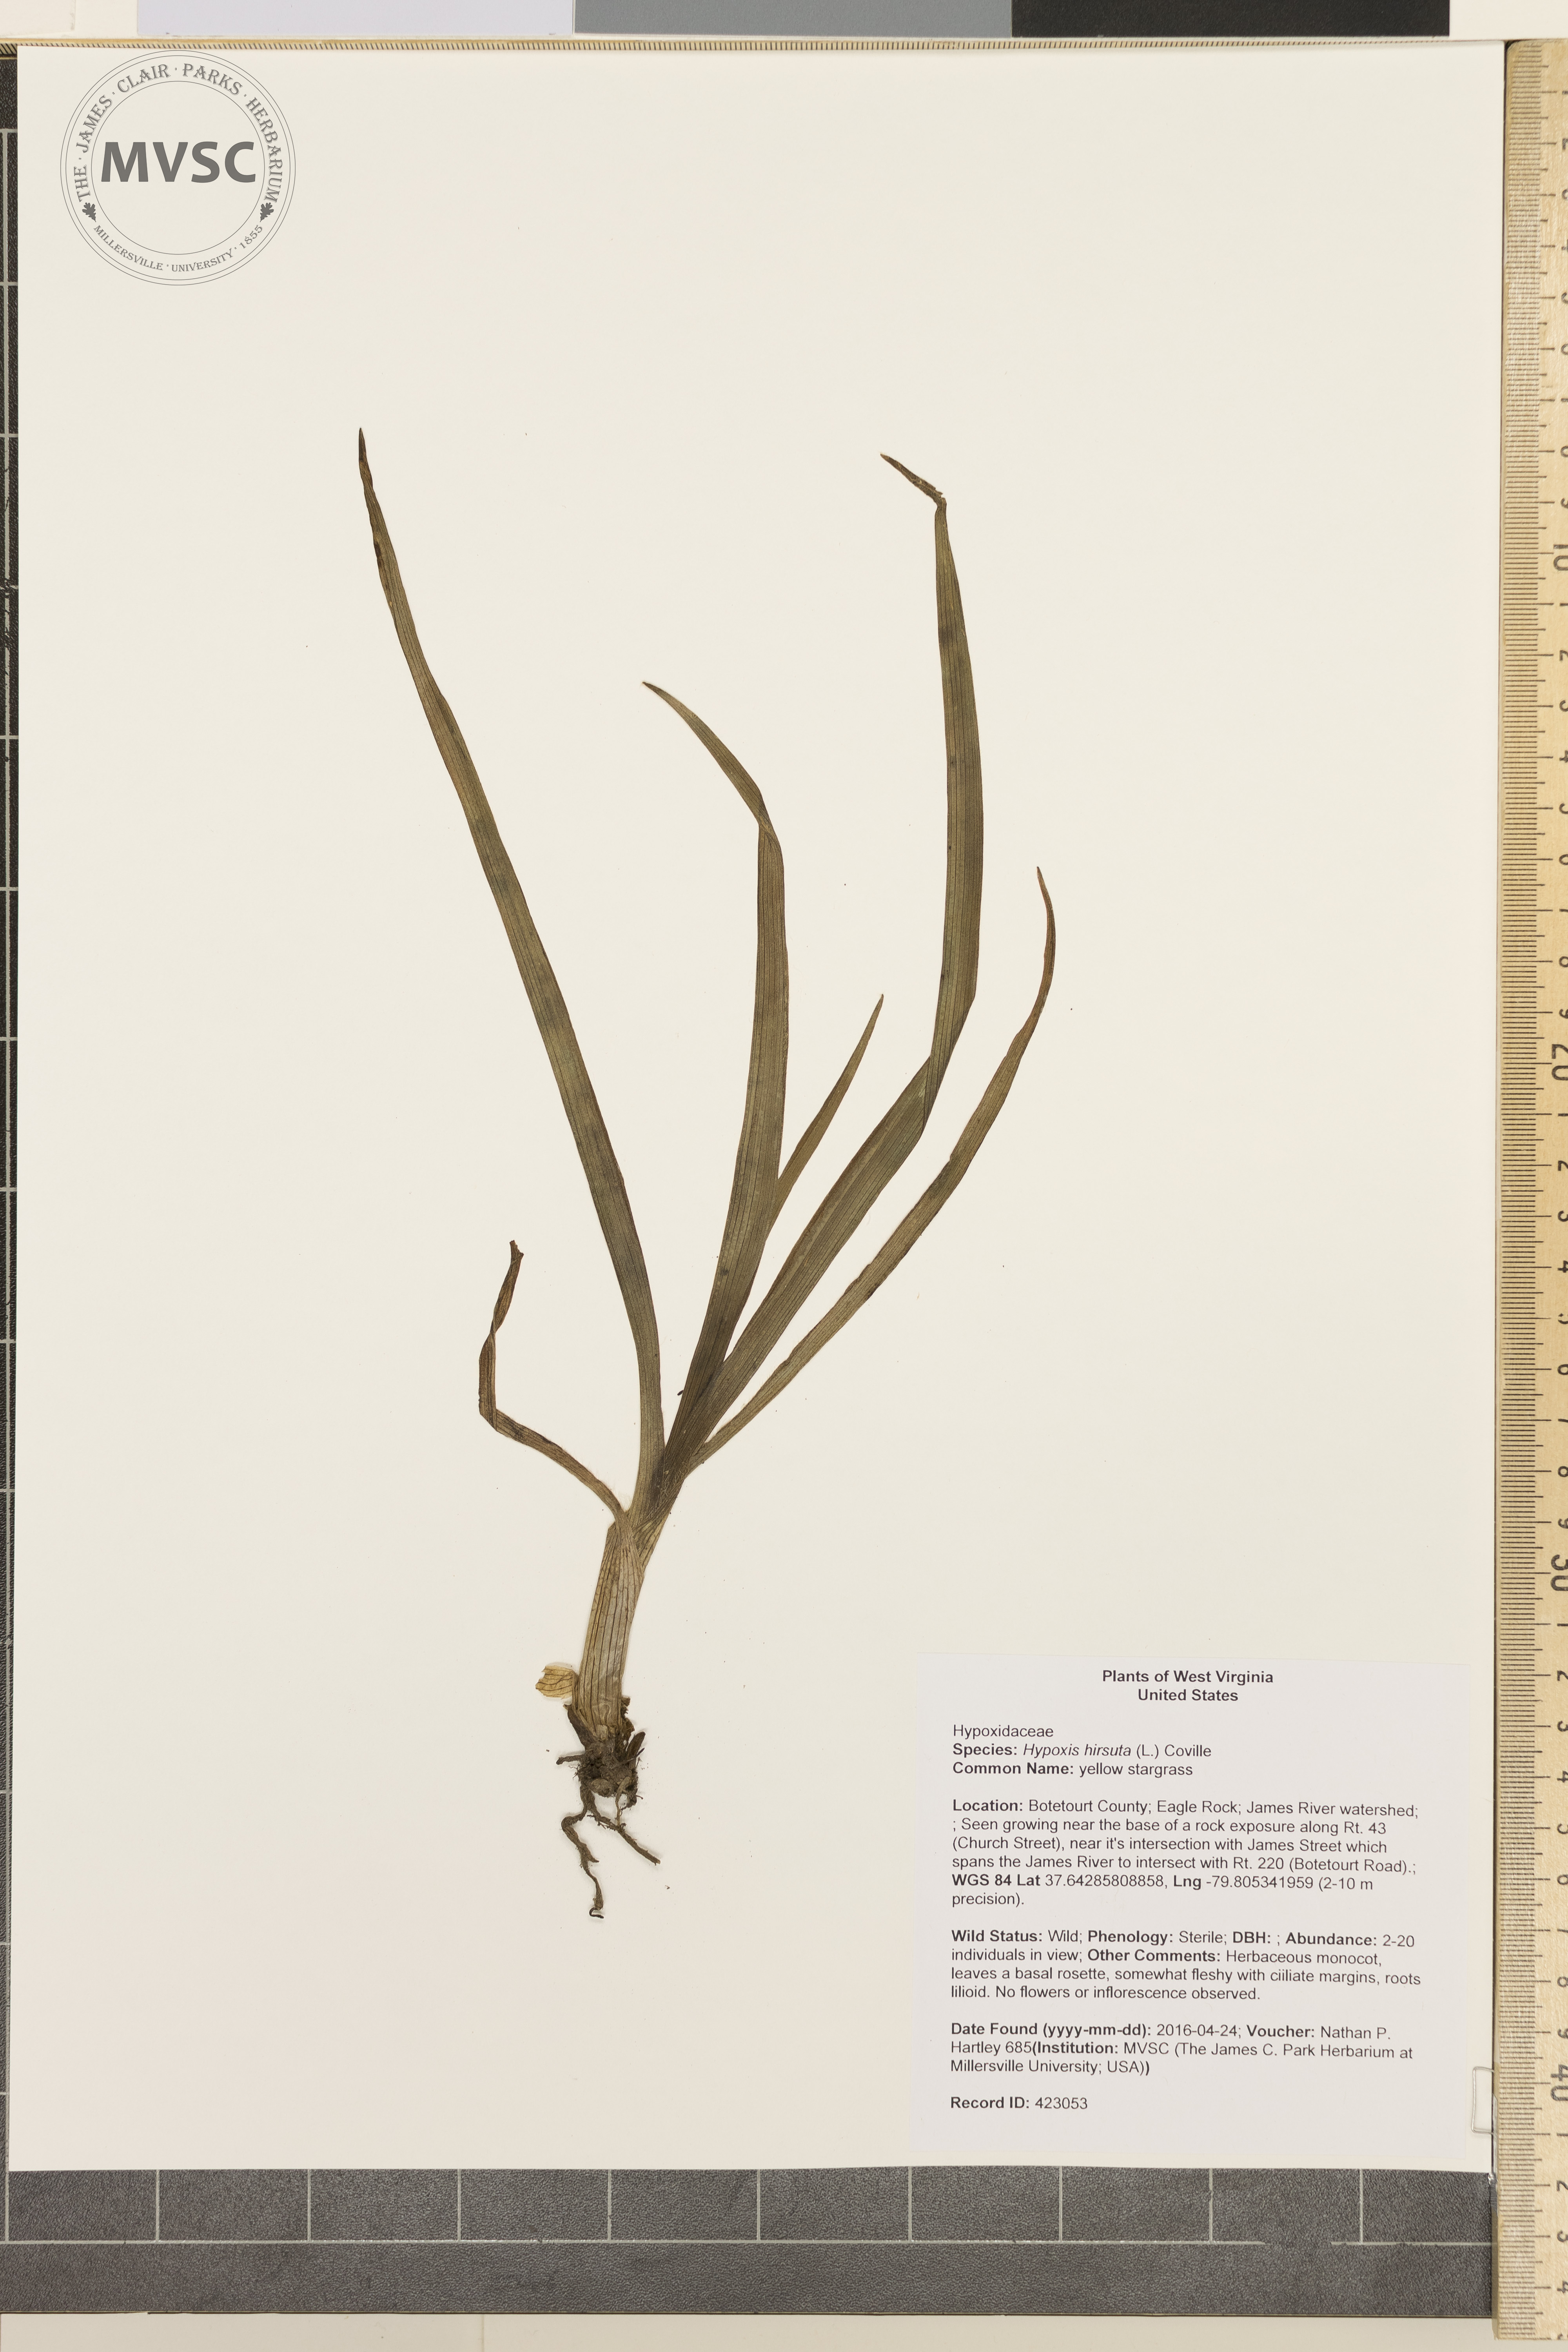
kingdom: Plantae
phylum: Tracheophyta
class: Liliopsida
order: Asparagales
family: Hypoxidaceae
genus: Hypoxis
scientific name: Hypoxis hirsuta
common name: yellow stargrass
